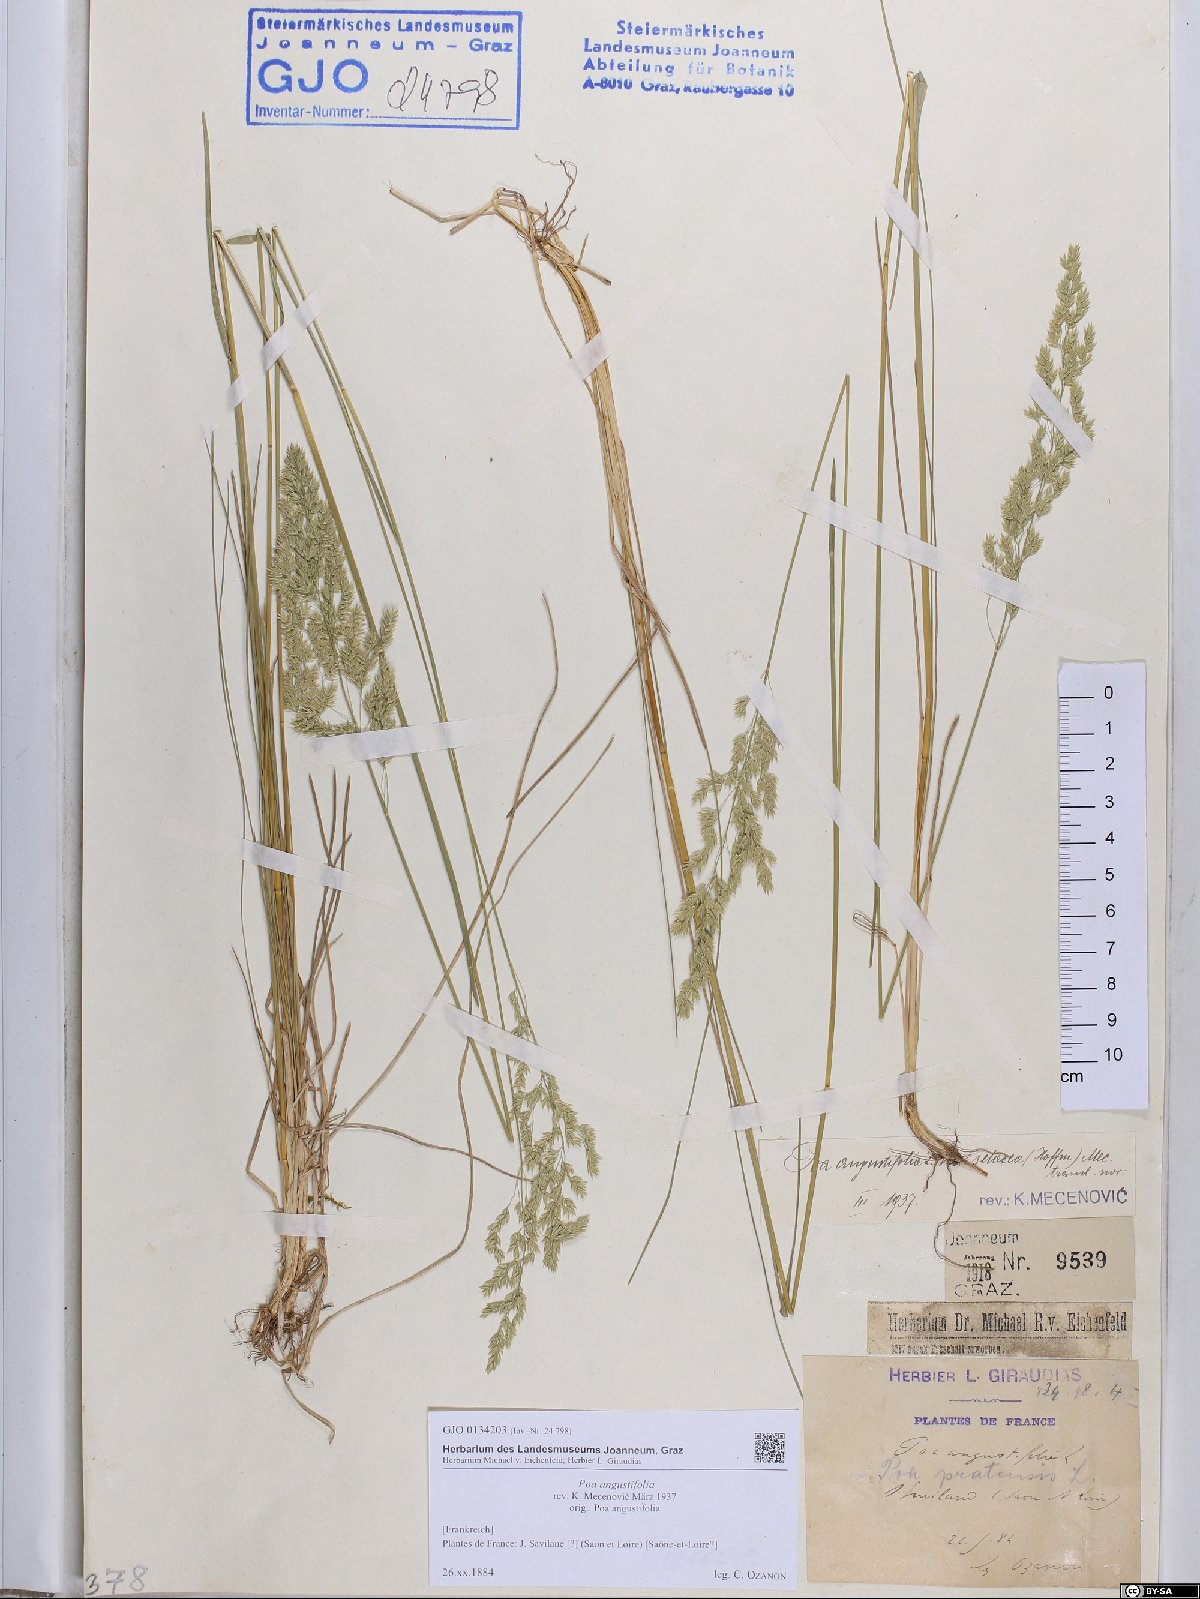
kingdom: Plantae
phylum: Tracheophyta
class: Liliopsida
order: Poales
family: Poaceae
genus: Poa
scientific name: Poa angustifolia
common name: Narrow-leaved meadow-grass
